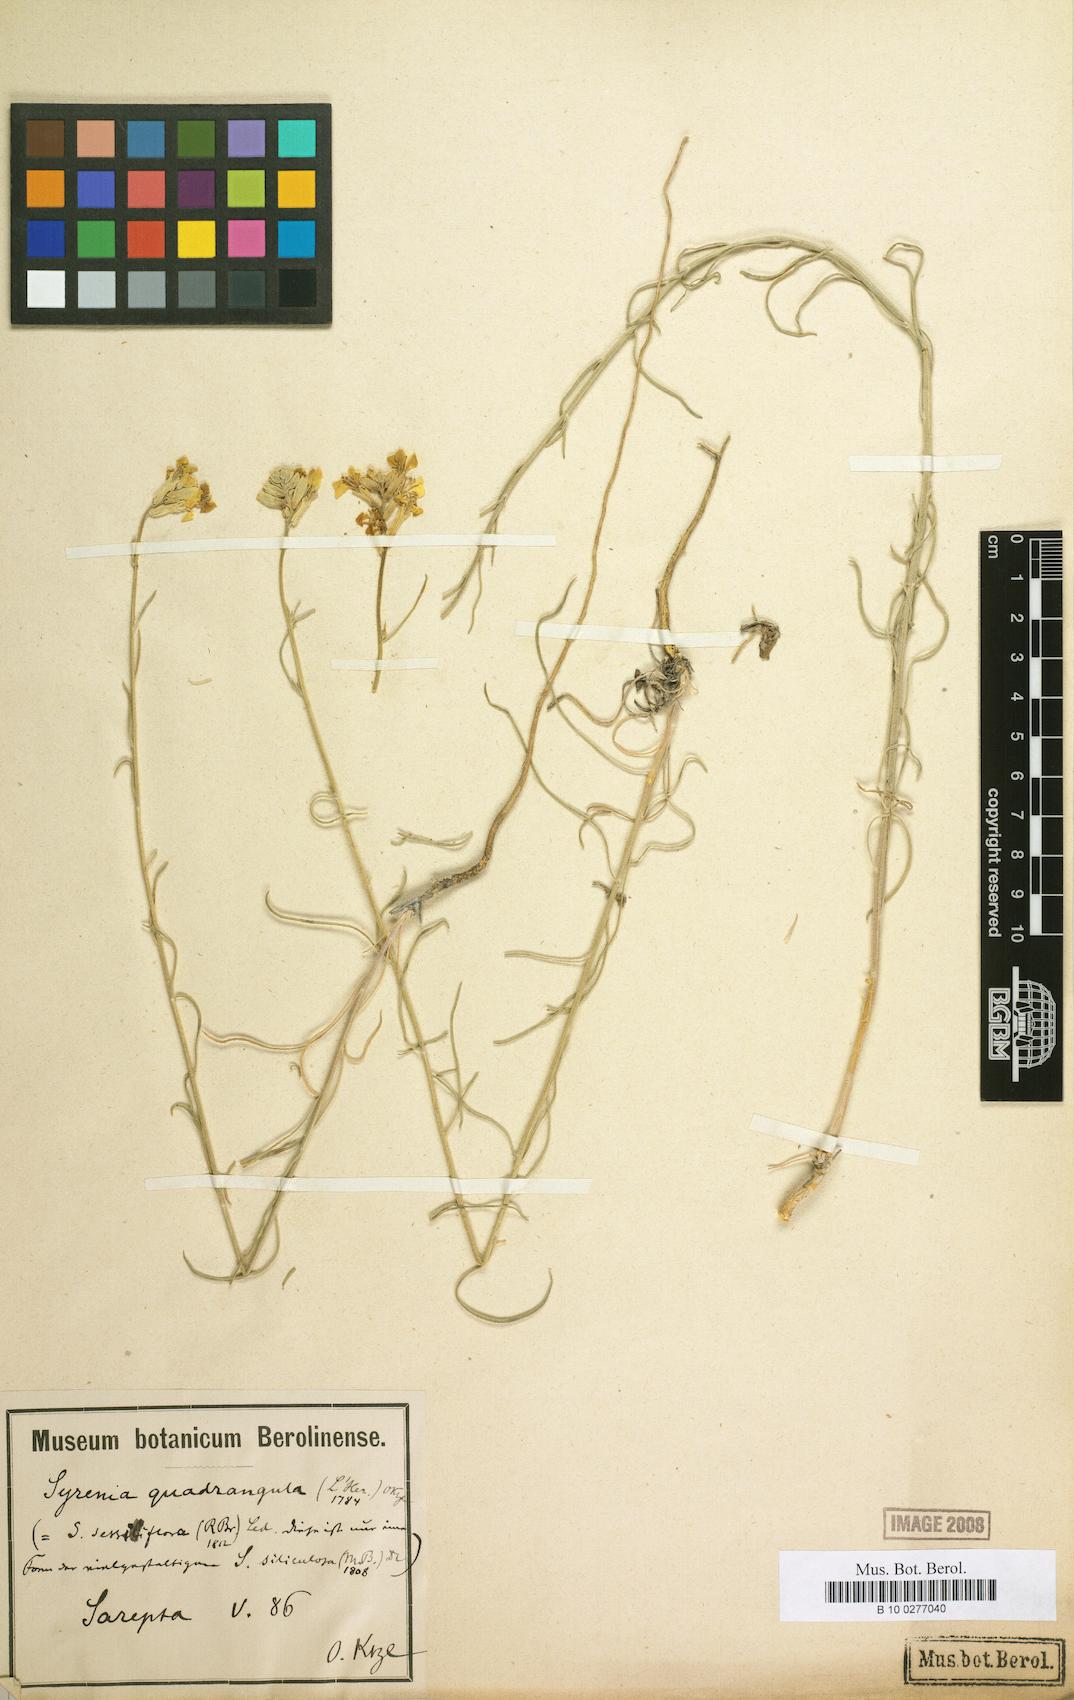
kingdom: Plantae
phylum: Tracheophyta
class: Magnoliopsida
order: Brassicales
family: Brassicaceae
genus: Erysimum
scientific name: Erysimum quadrangulum
